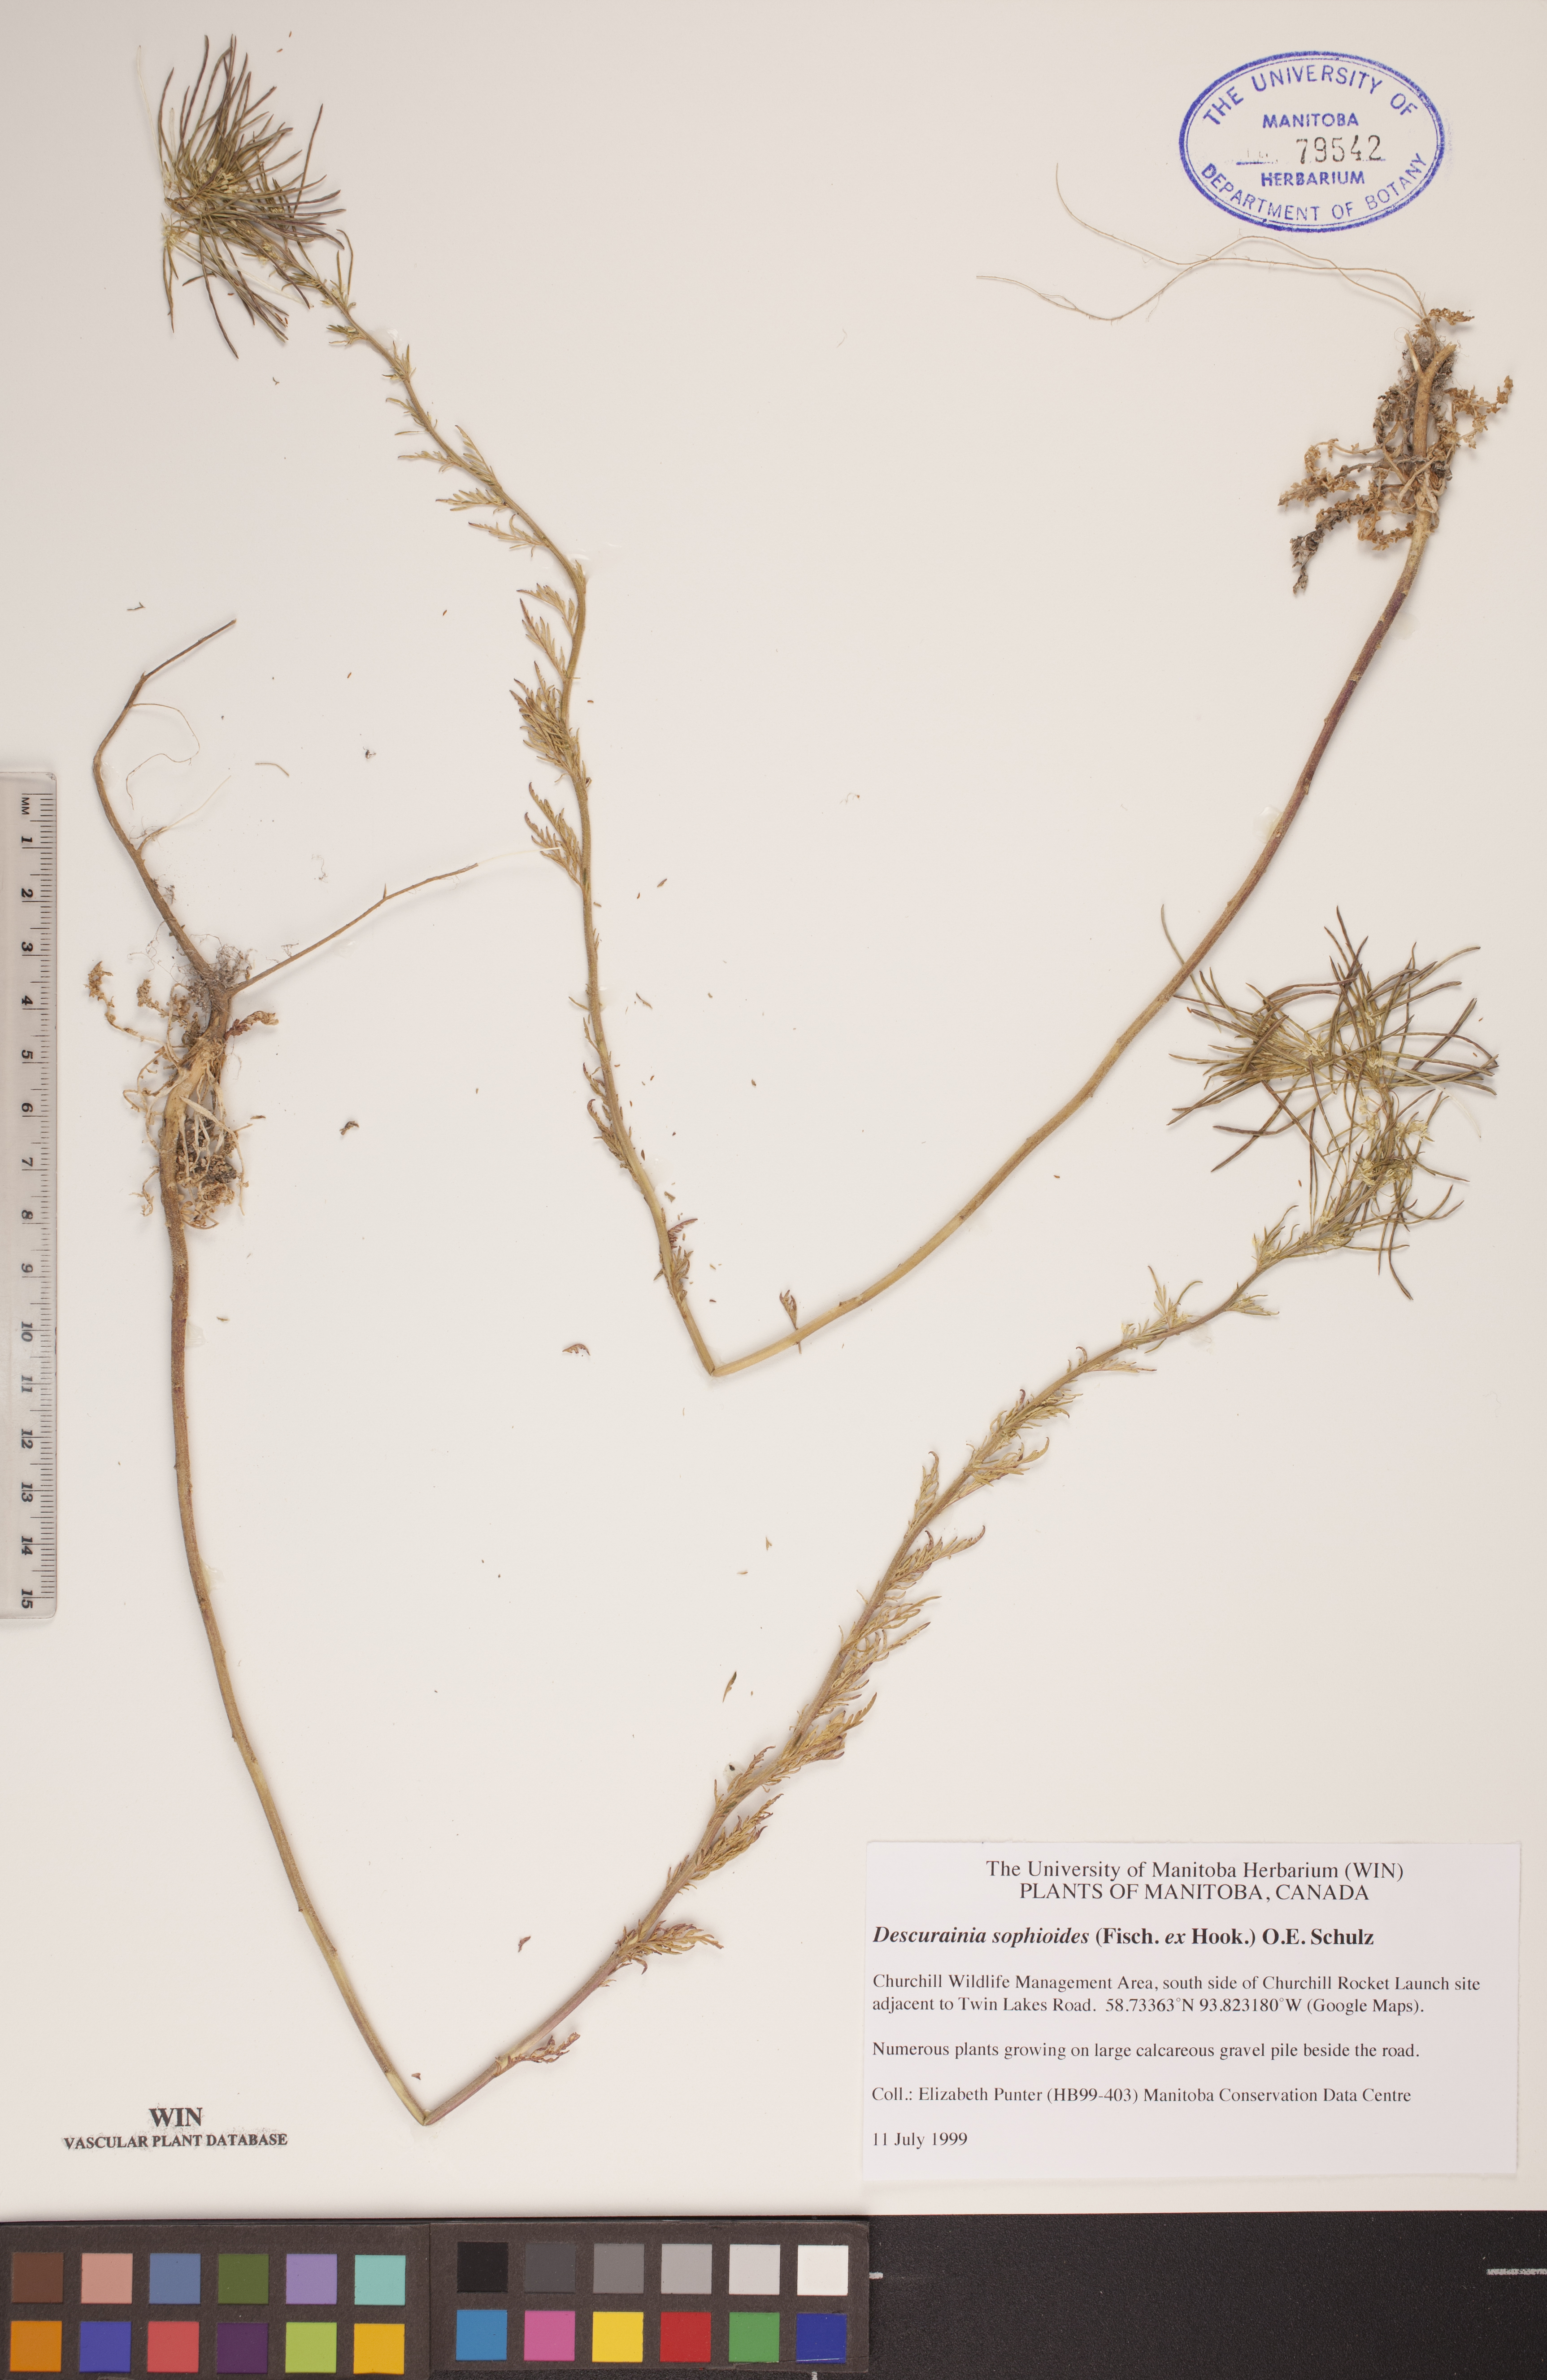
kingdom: Plantae
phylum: Tracheophyta
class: Magnoliopsida
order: Brassicales
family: Brassicaceae
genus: Descurainia
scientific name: Descurainia sophioides
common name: Northern tansy mustard
